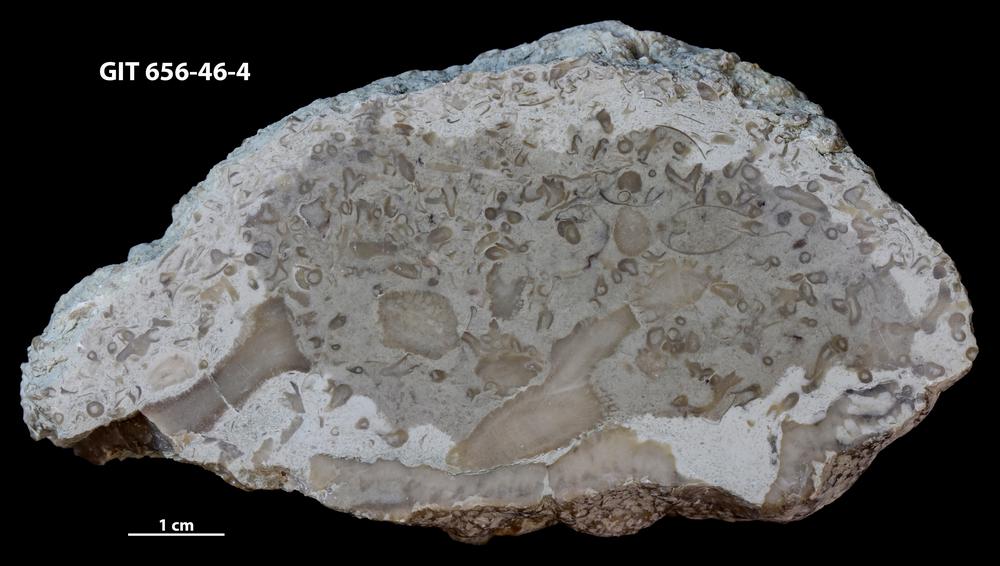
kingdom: Animalia
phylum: Cnidaria
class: Anthozoa
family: Auloporidae
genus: Aulopora
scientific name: Aulopora
